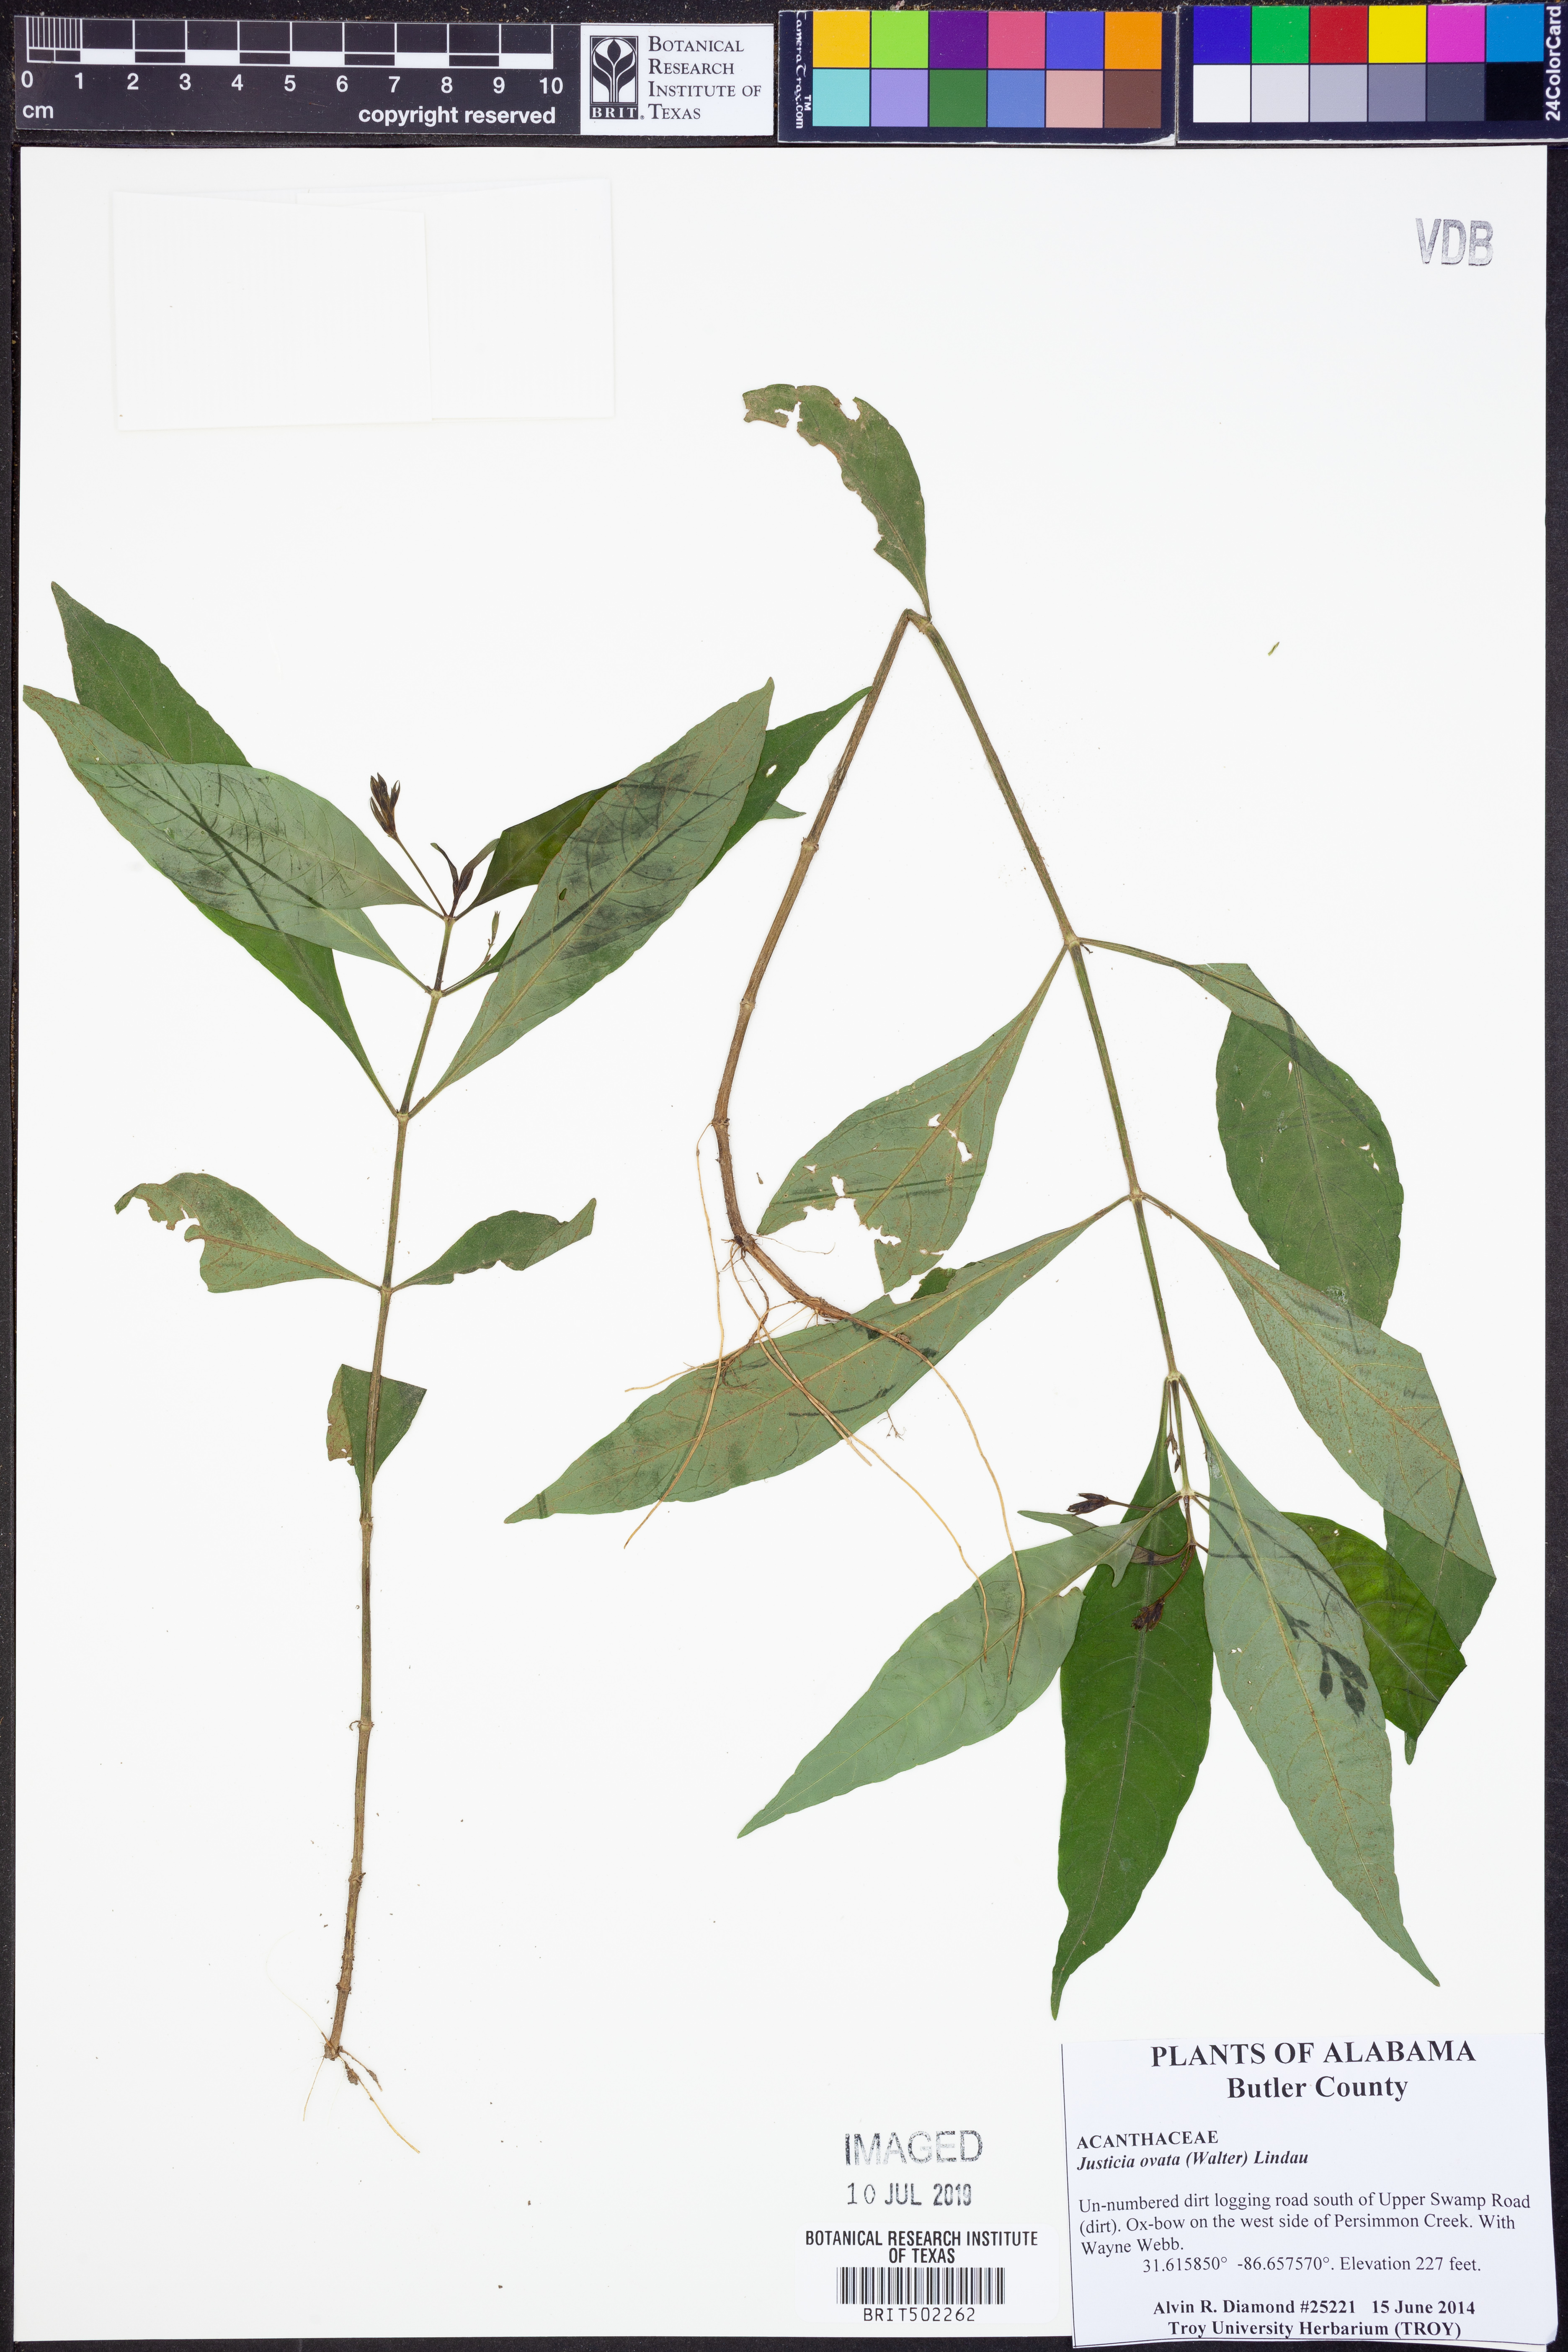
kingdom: Plantae
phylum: Tracheophyta
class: Magnoliopsida
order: Lamiales
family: Acanthaceae
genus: Dianthera
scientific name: Dianthera ovata
